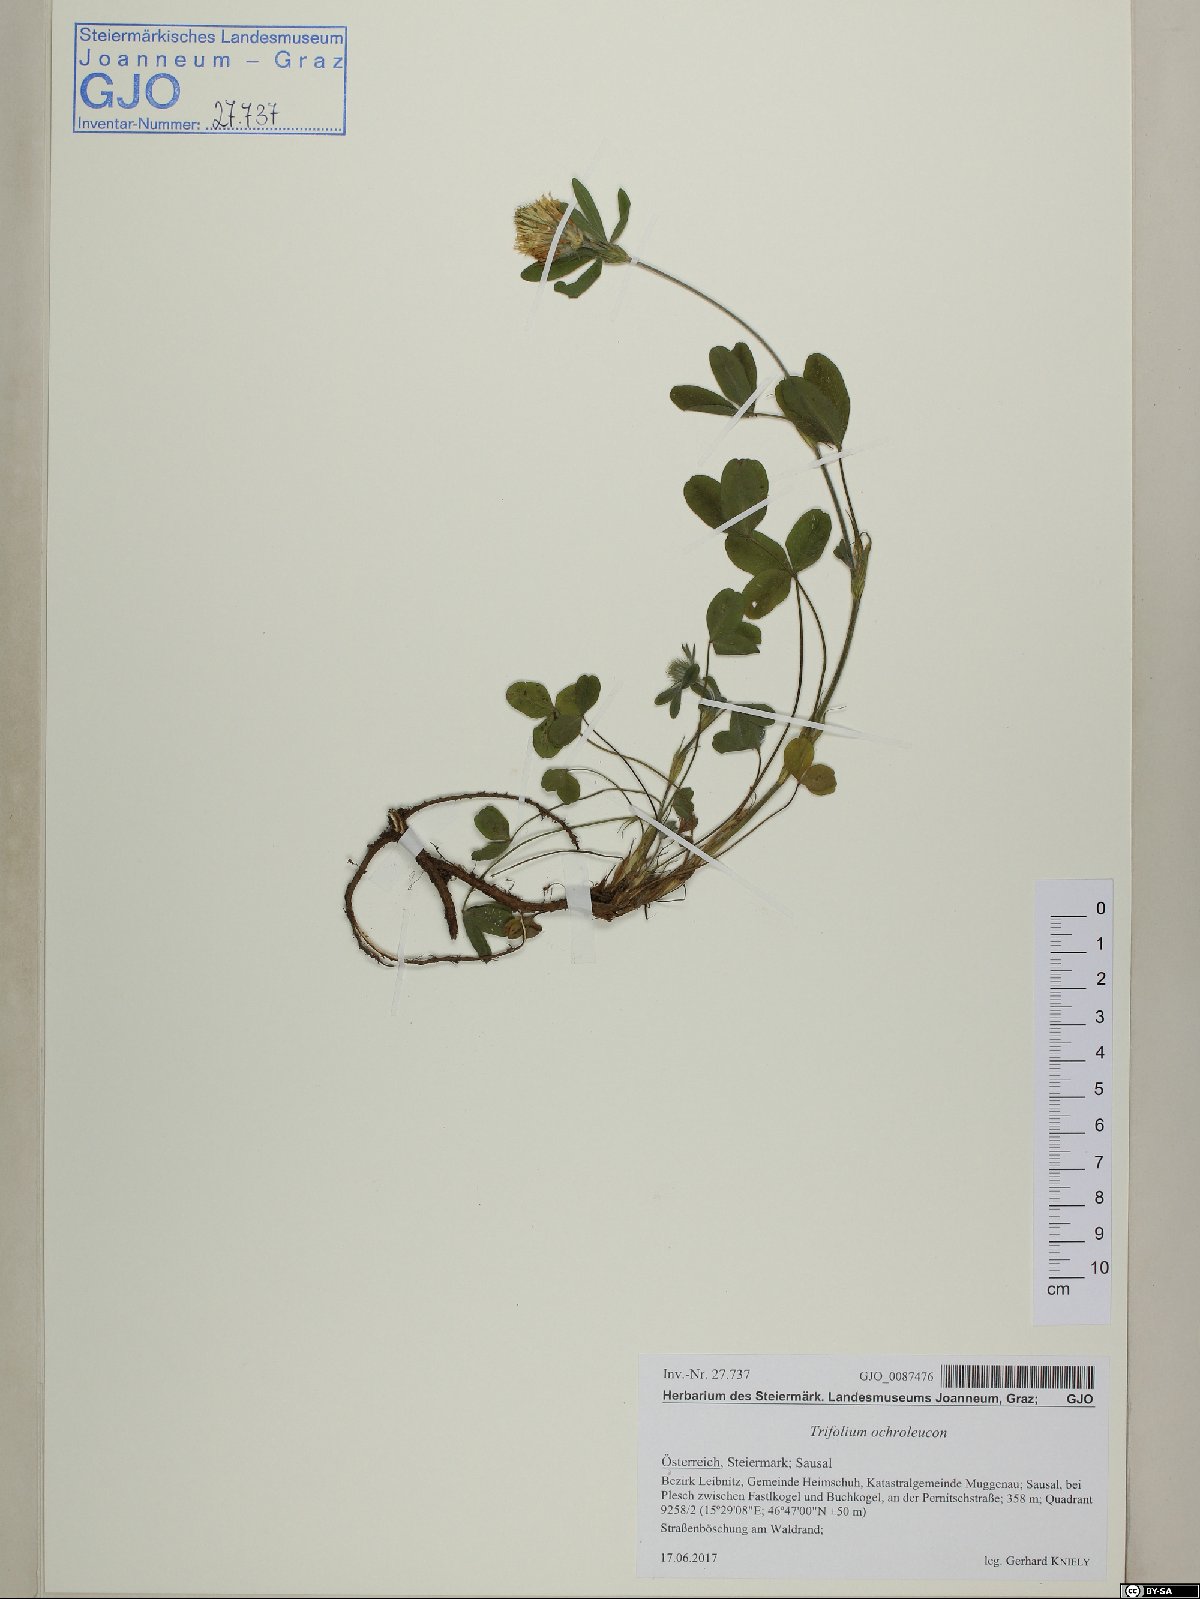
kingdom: Plantae
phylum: Tracheophyta
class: Magnoliopsida
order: Fabales
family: Fabaceae
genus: Trifolium
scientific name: Trifolium ochroleucon
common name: Sulphur clover
